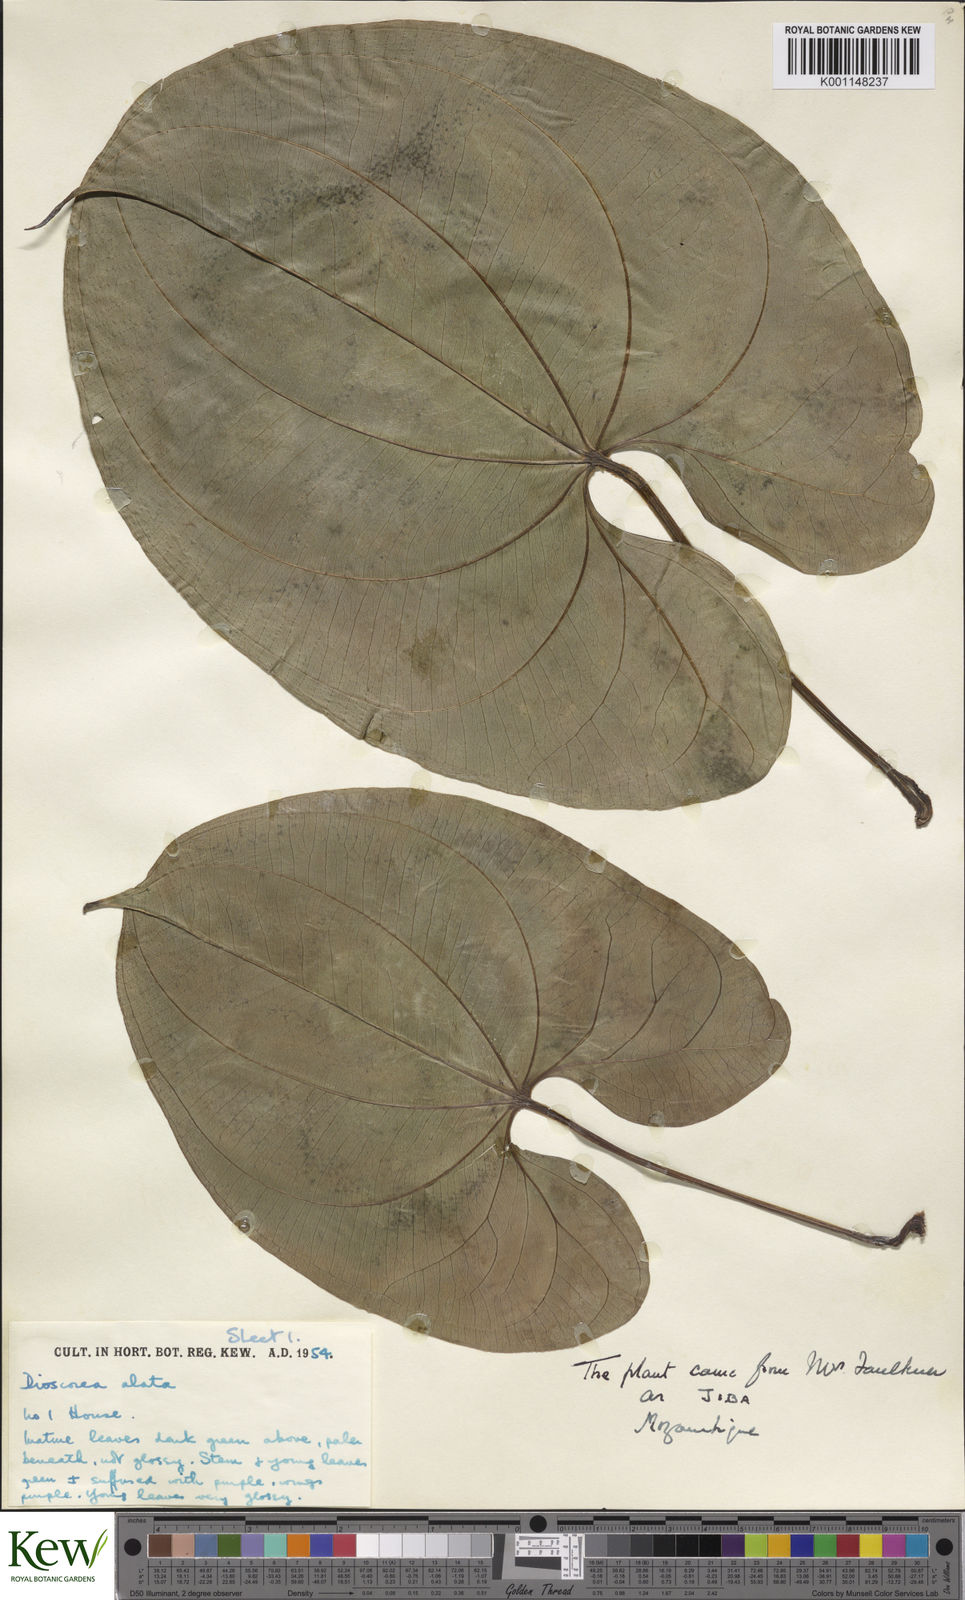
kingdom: Plantae
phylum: Tracheophyta
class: Liliopsida
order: Dioscoreales
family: Dioscoreaceae
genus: Dioscorea
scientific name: Dioscorea alata
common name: Water yam
